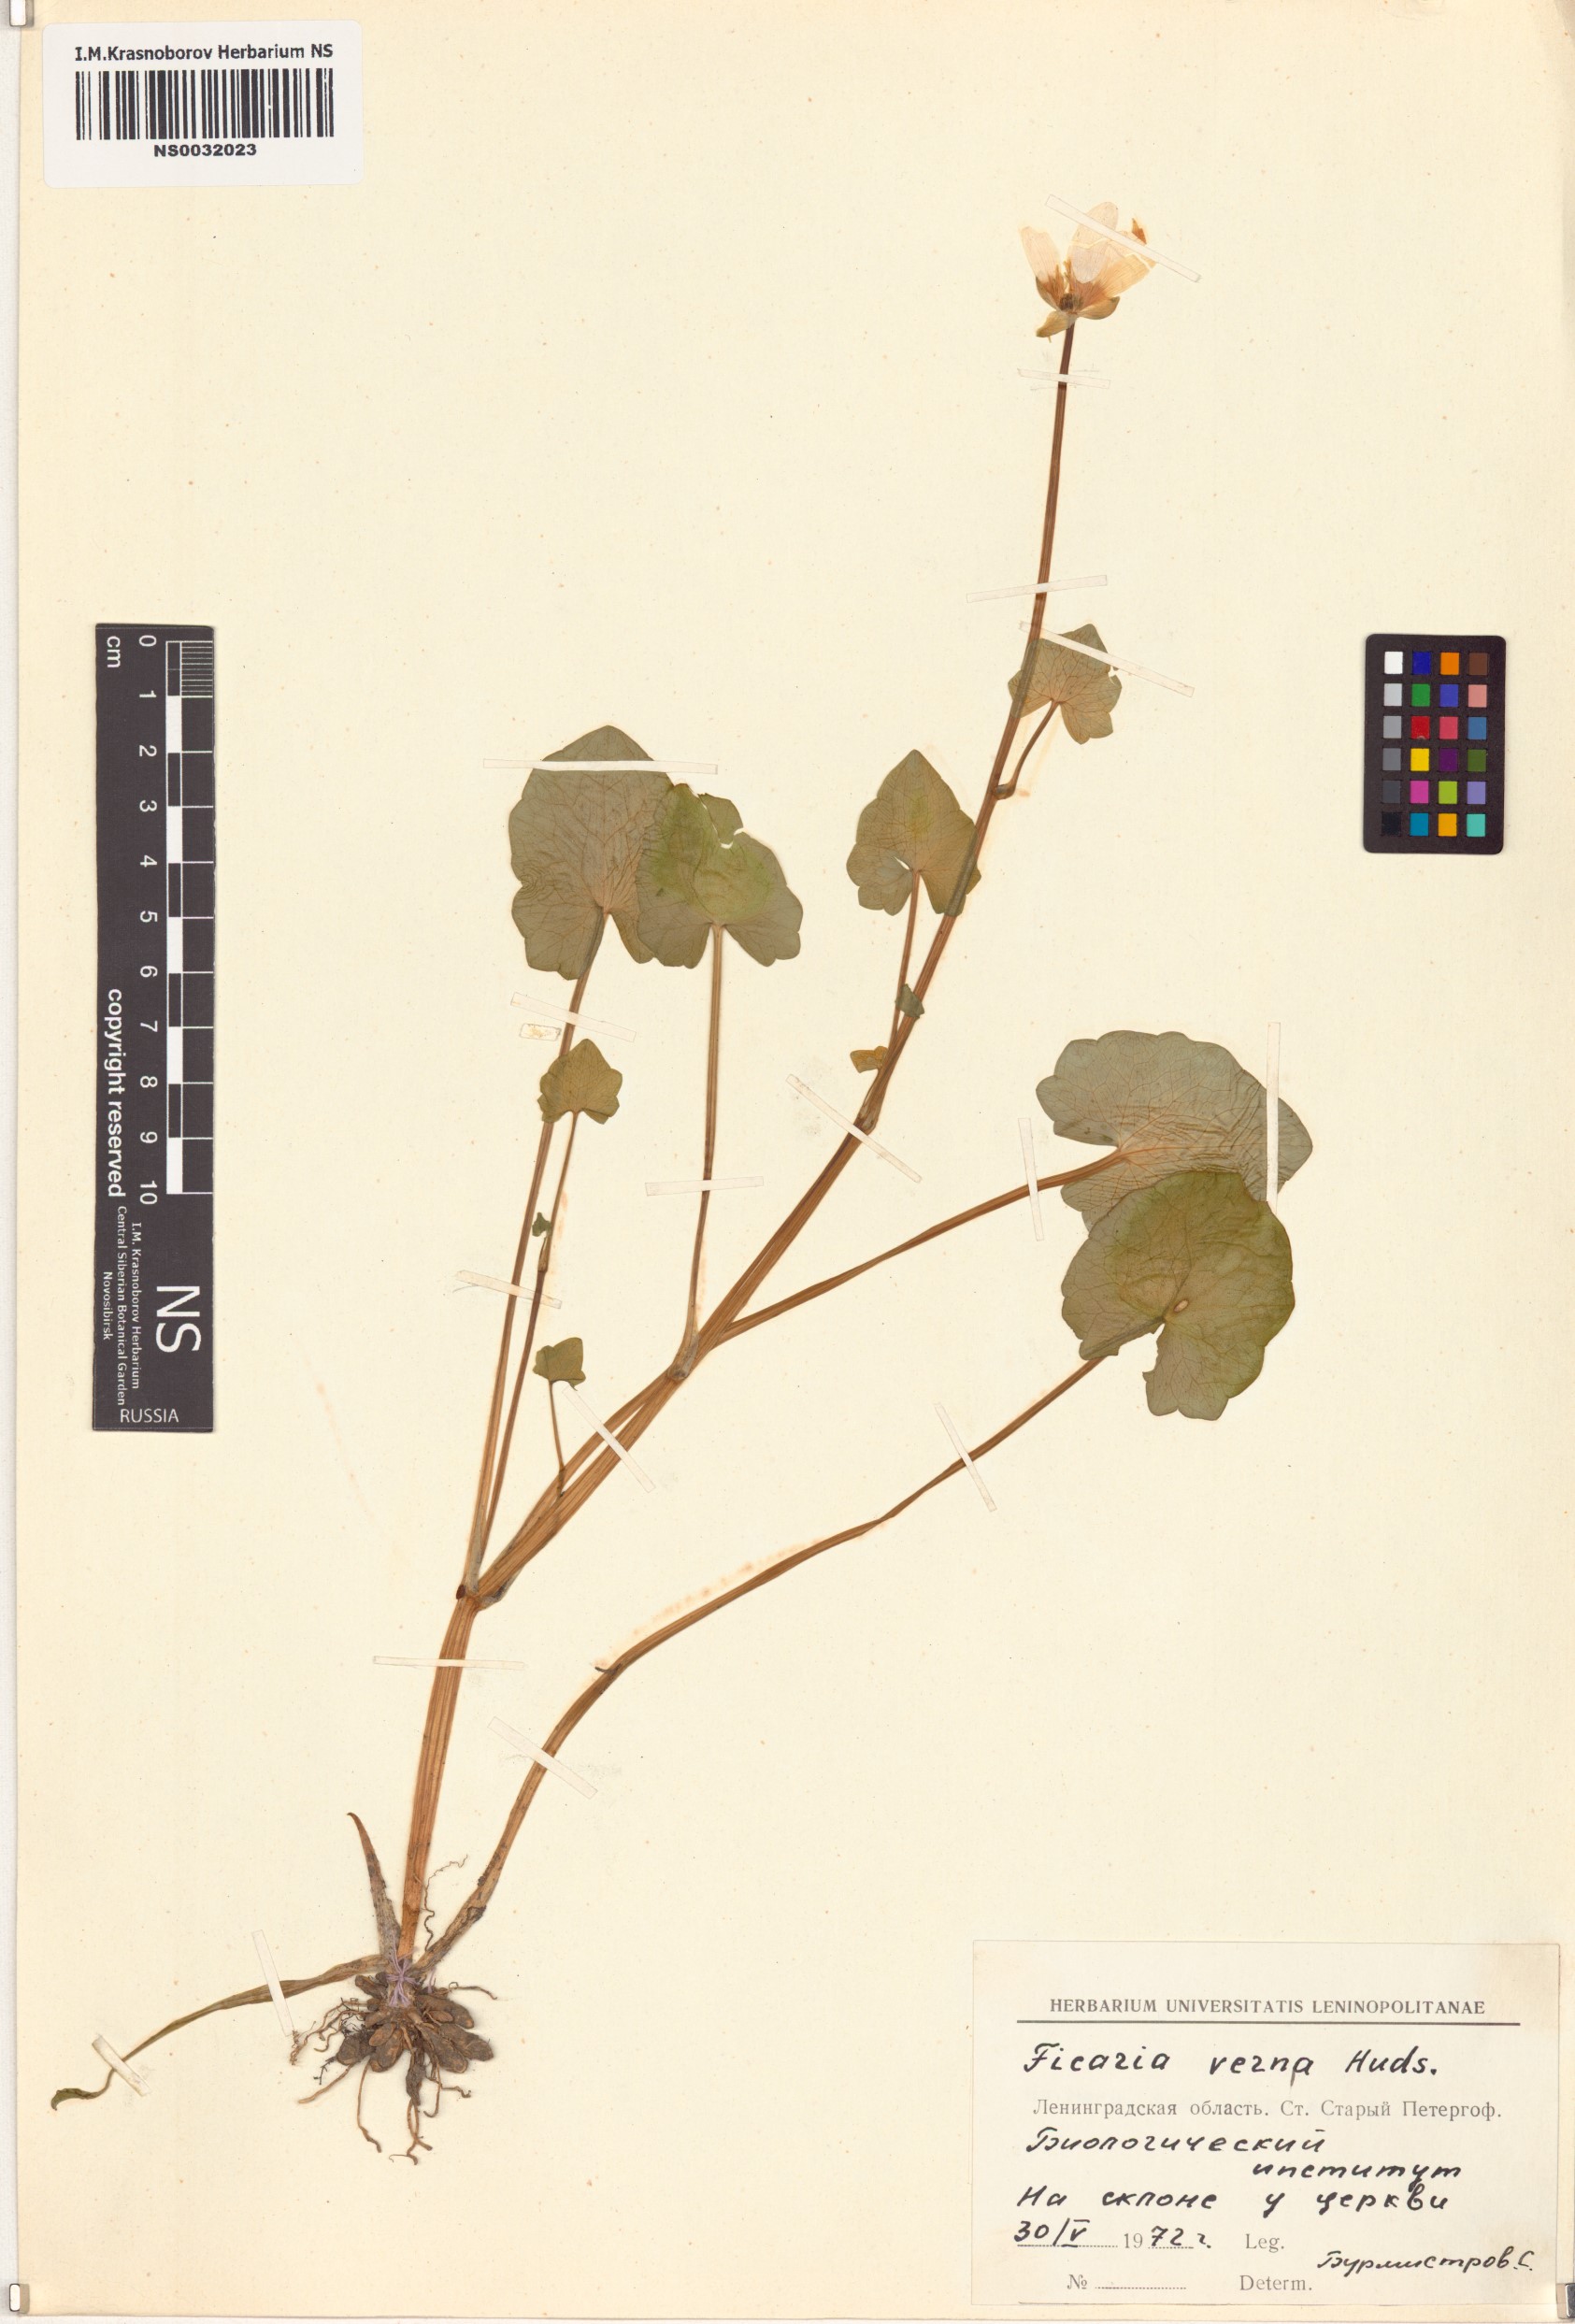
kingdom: Plantae
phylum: Tracheophyta
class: Magnoliopsida
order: Ranunculales
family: Ranunculaceae
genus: Ficaria
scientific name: Ficaria verna
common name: Lesser celandine
